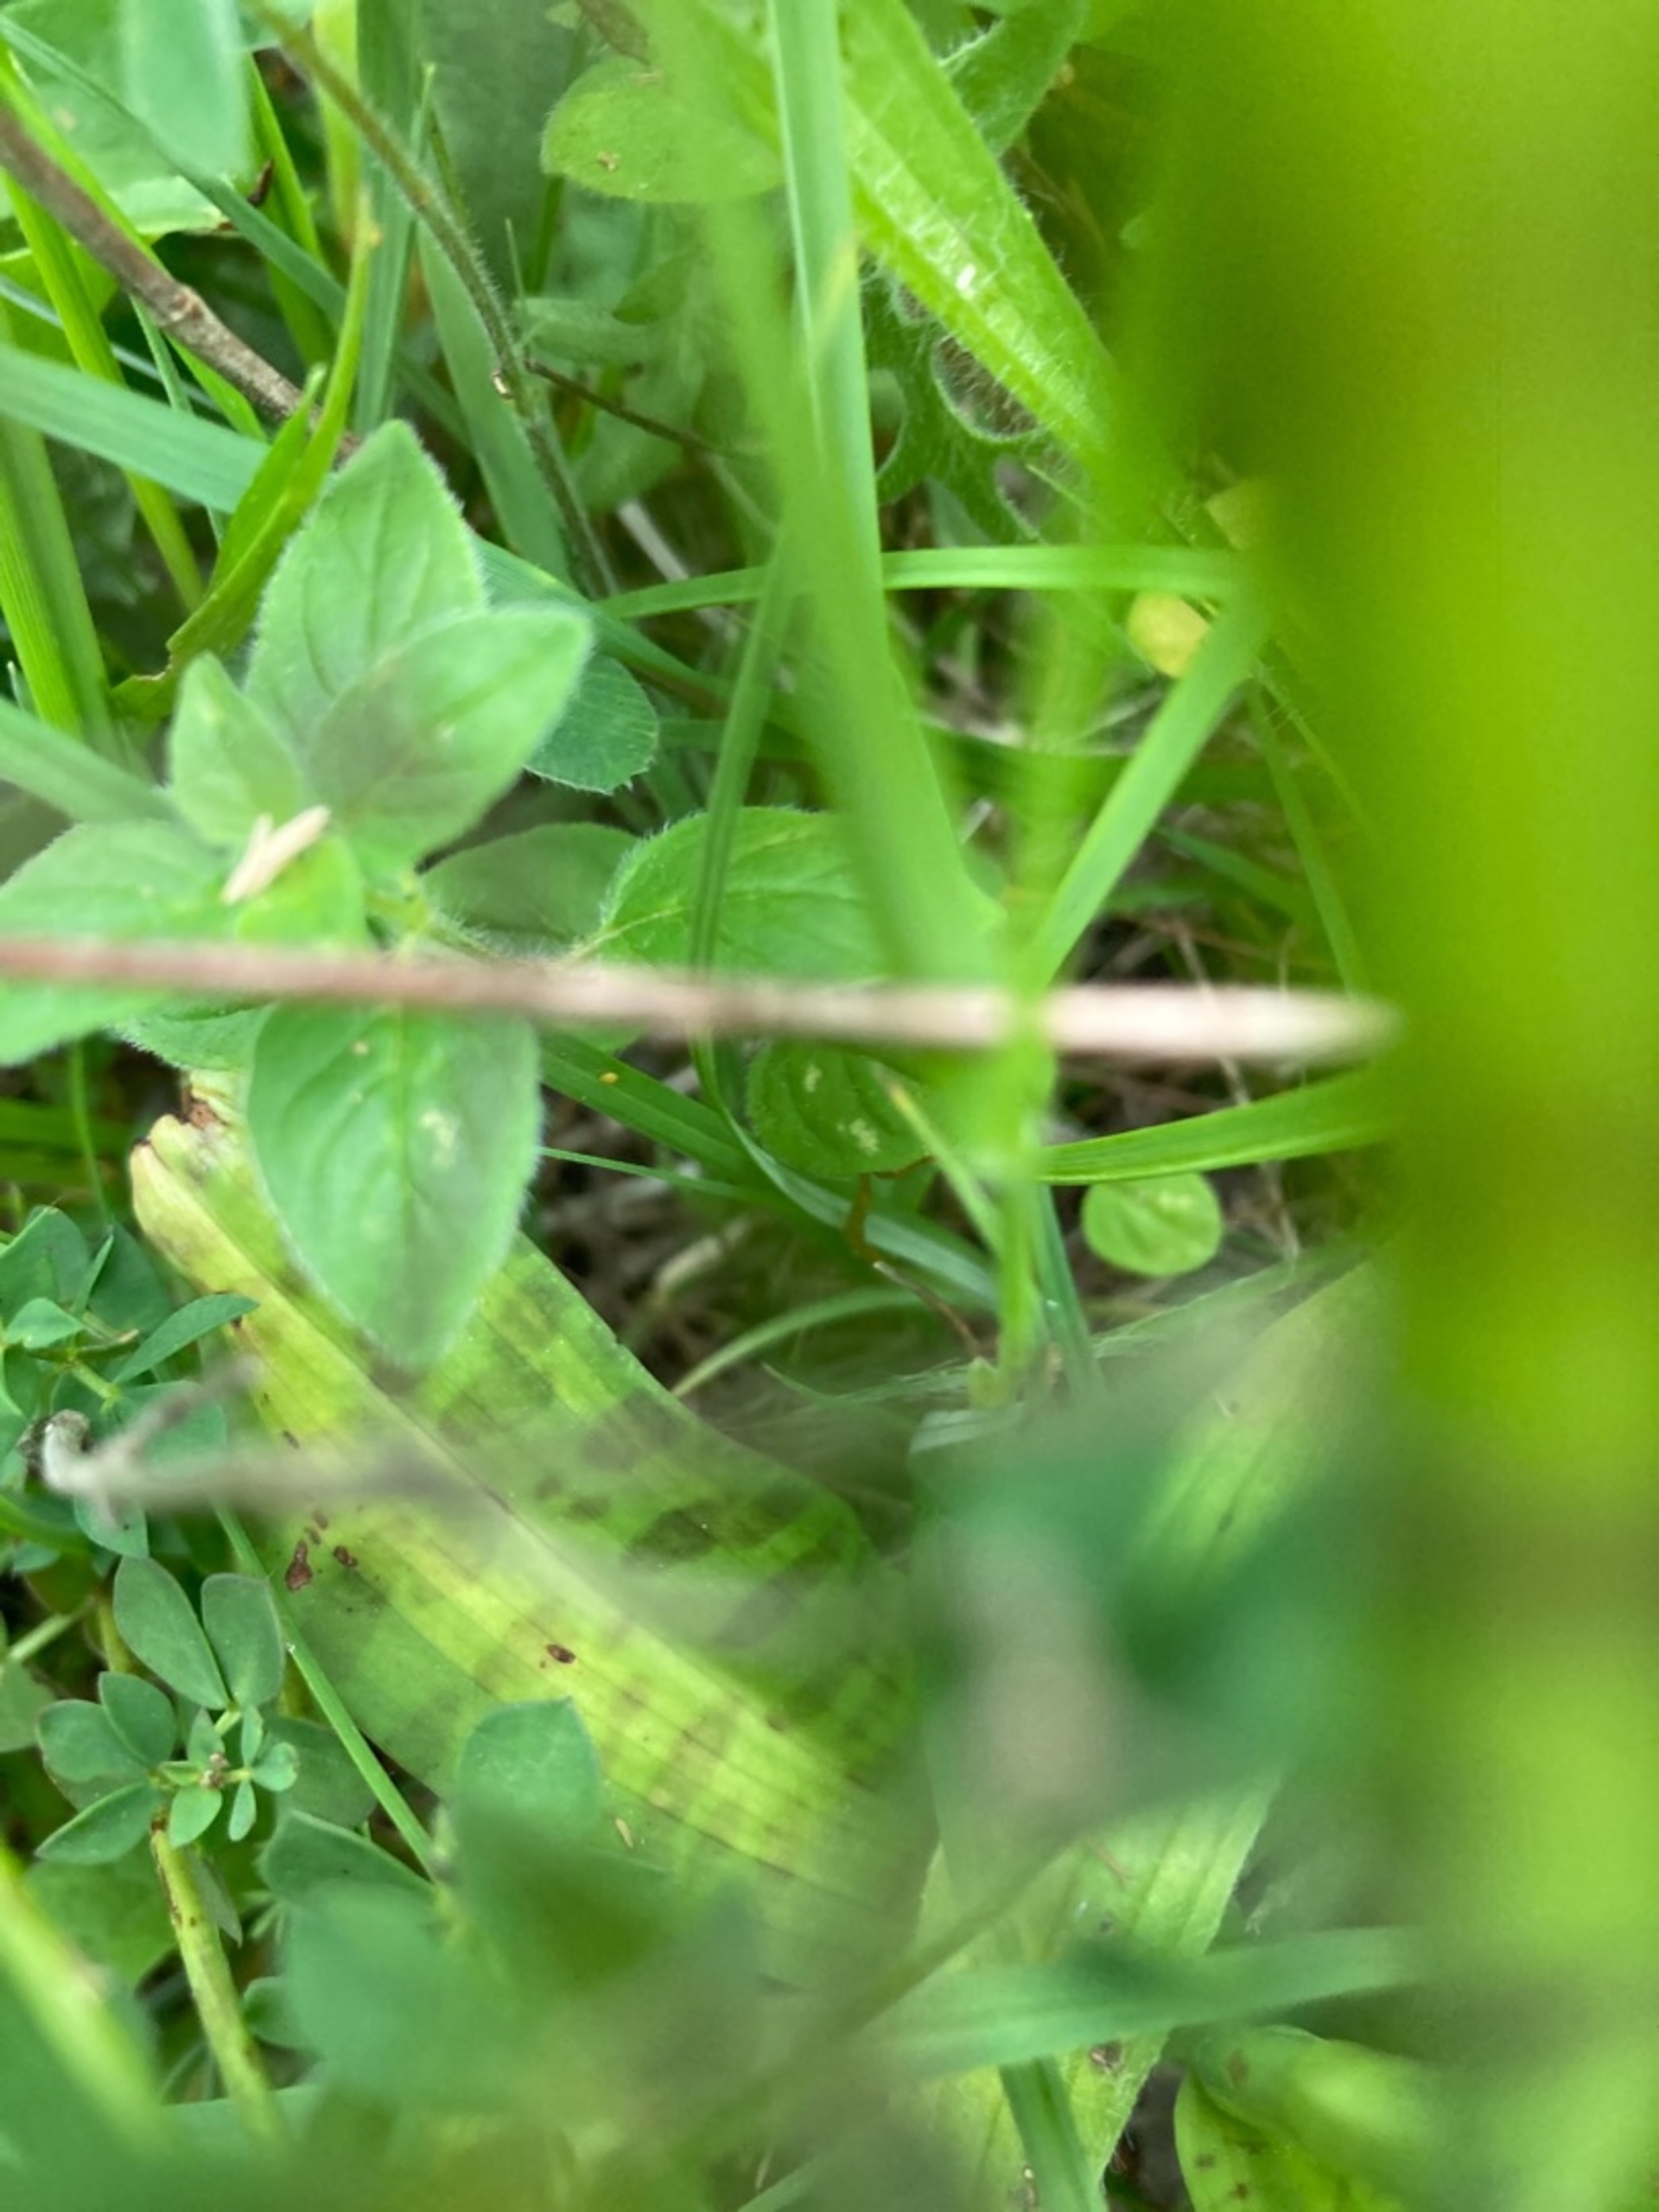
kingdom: Plantae
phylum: Tracheophyta
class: Liliopsida
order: Asparagales
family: Orchidaceae
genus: Dactylorhiza
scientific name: Dactylorhiza maculata
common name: Skov-gøgeurt
